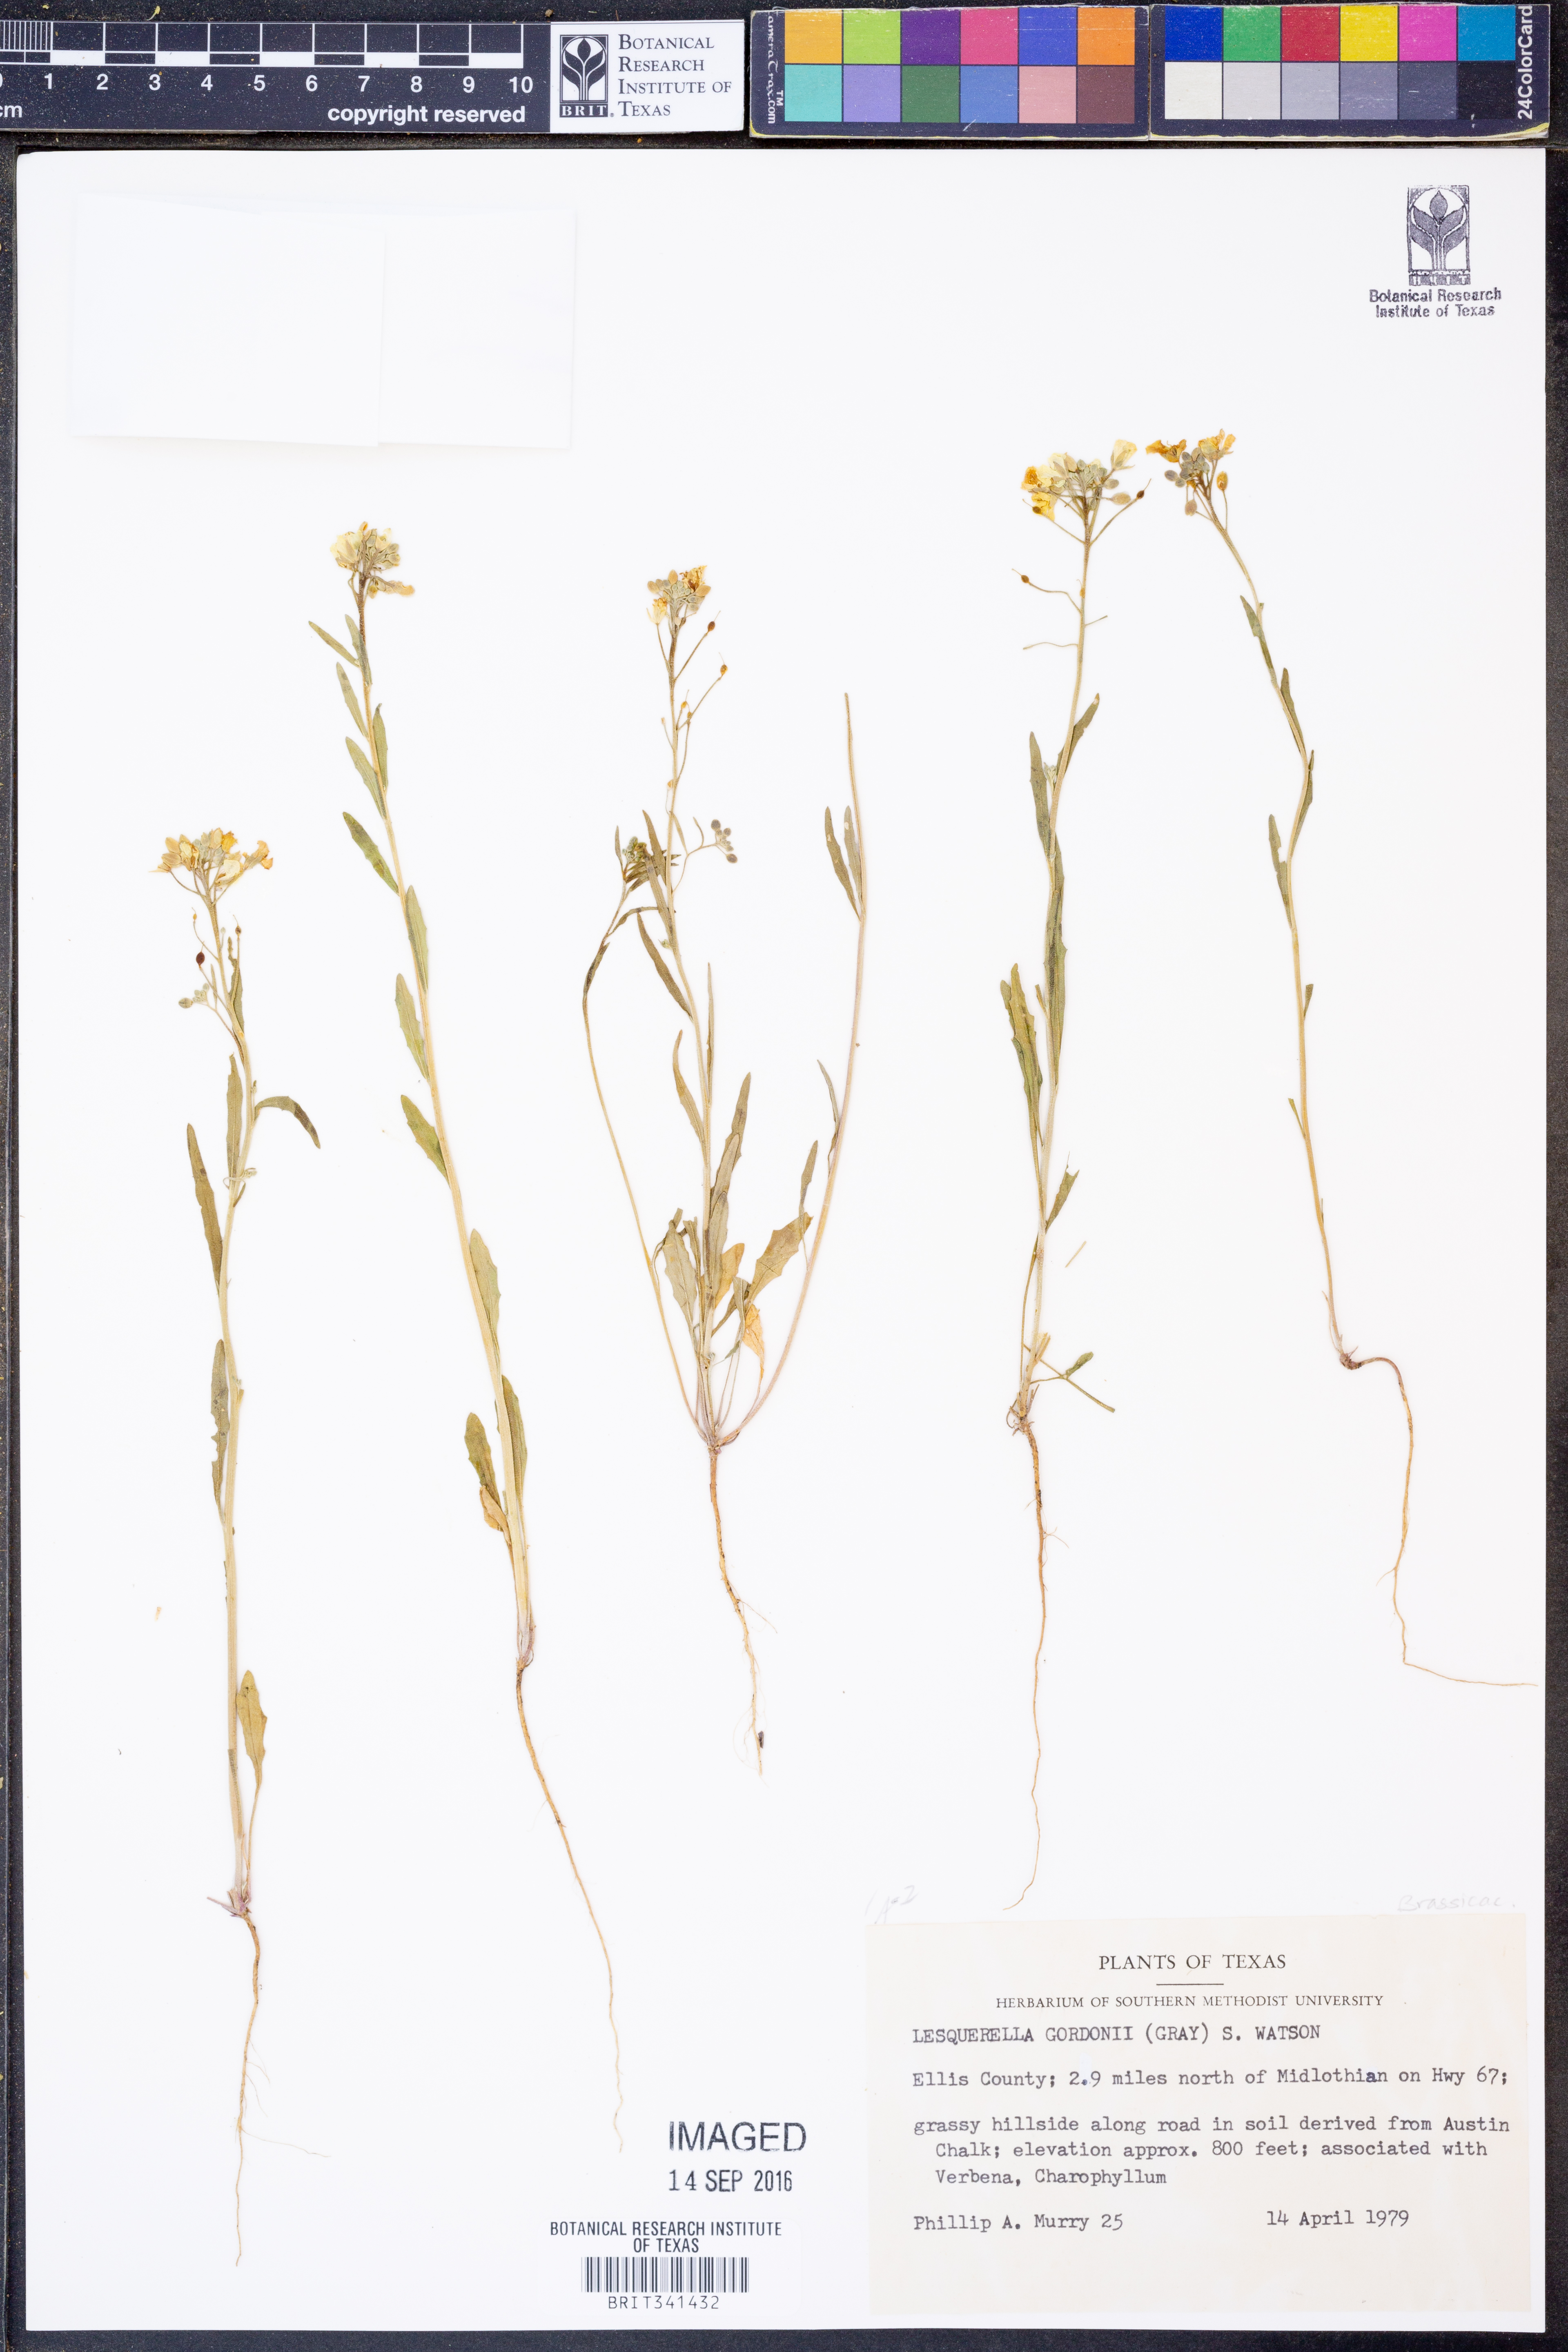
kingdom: Plantae
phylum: Tracheophyta
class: Magnoliopsida
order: Brassicales
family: Brassicaceae
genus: Physaria
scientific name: Physaria gordonii
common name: Gordon's bladderpod
